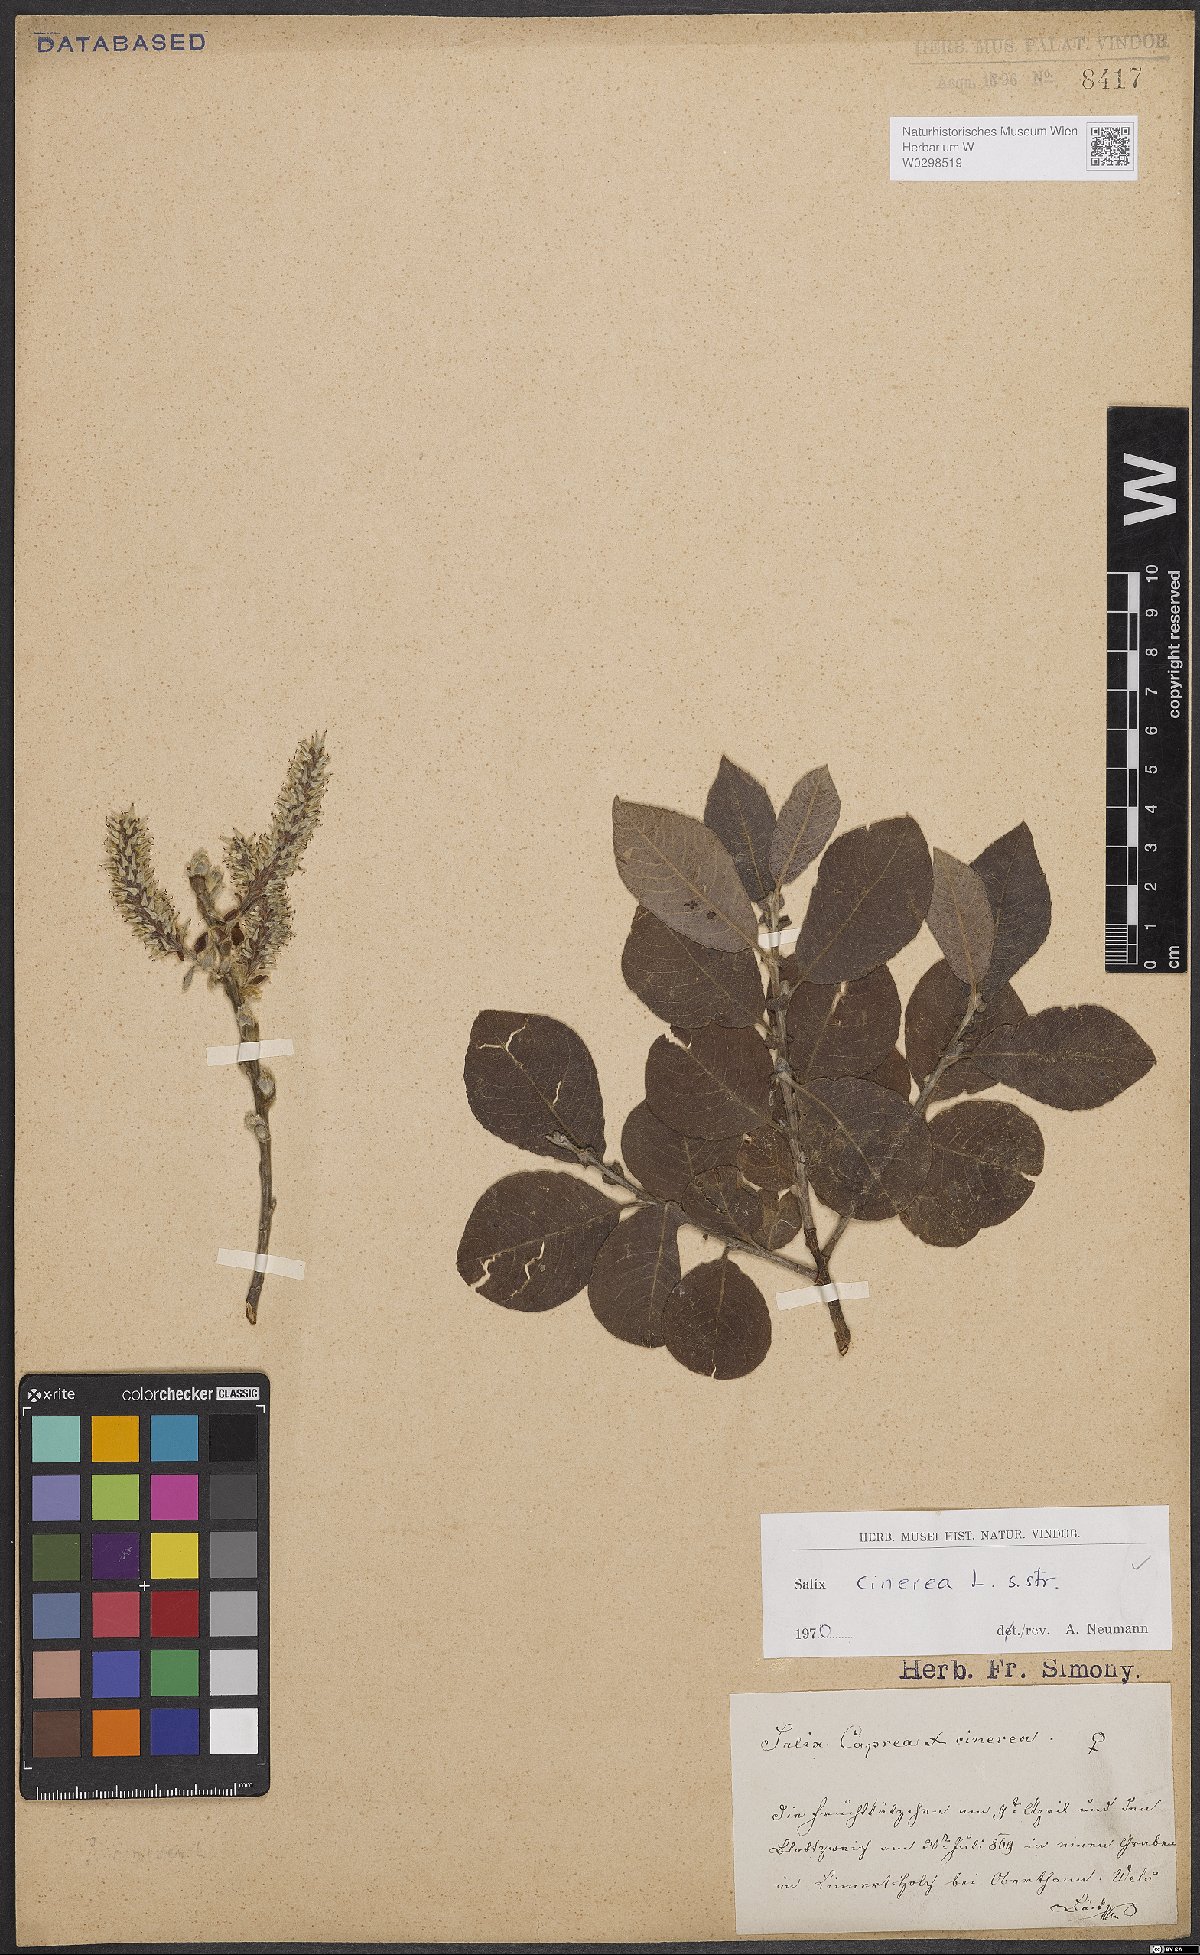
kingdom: Plantae
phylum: Tracheophyta
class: Magnoliopsida
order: Malpighiales
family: Salicaceae
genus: Salix
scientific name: Salix cinerea
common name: Common sallow
